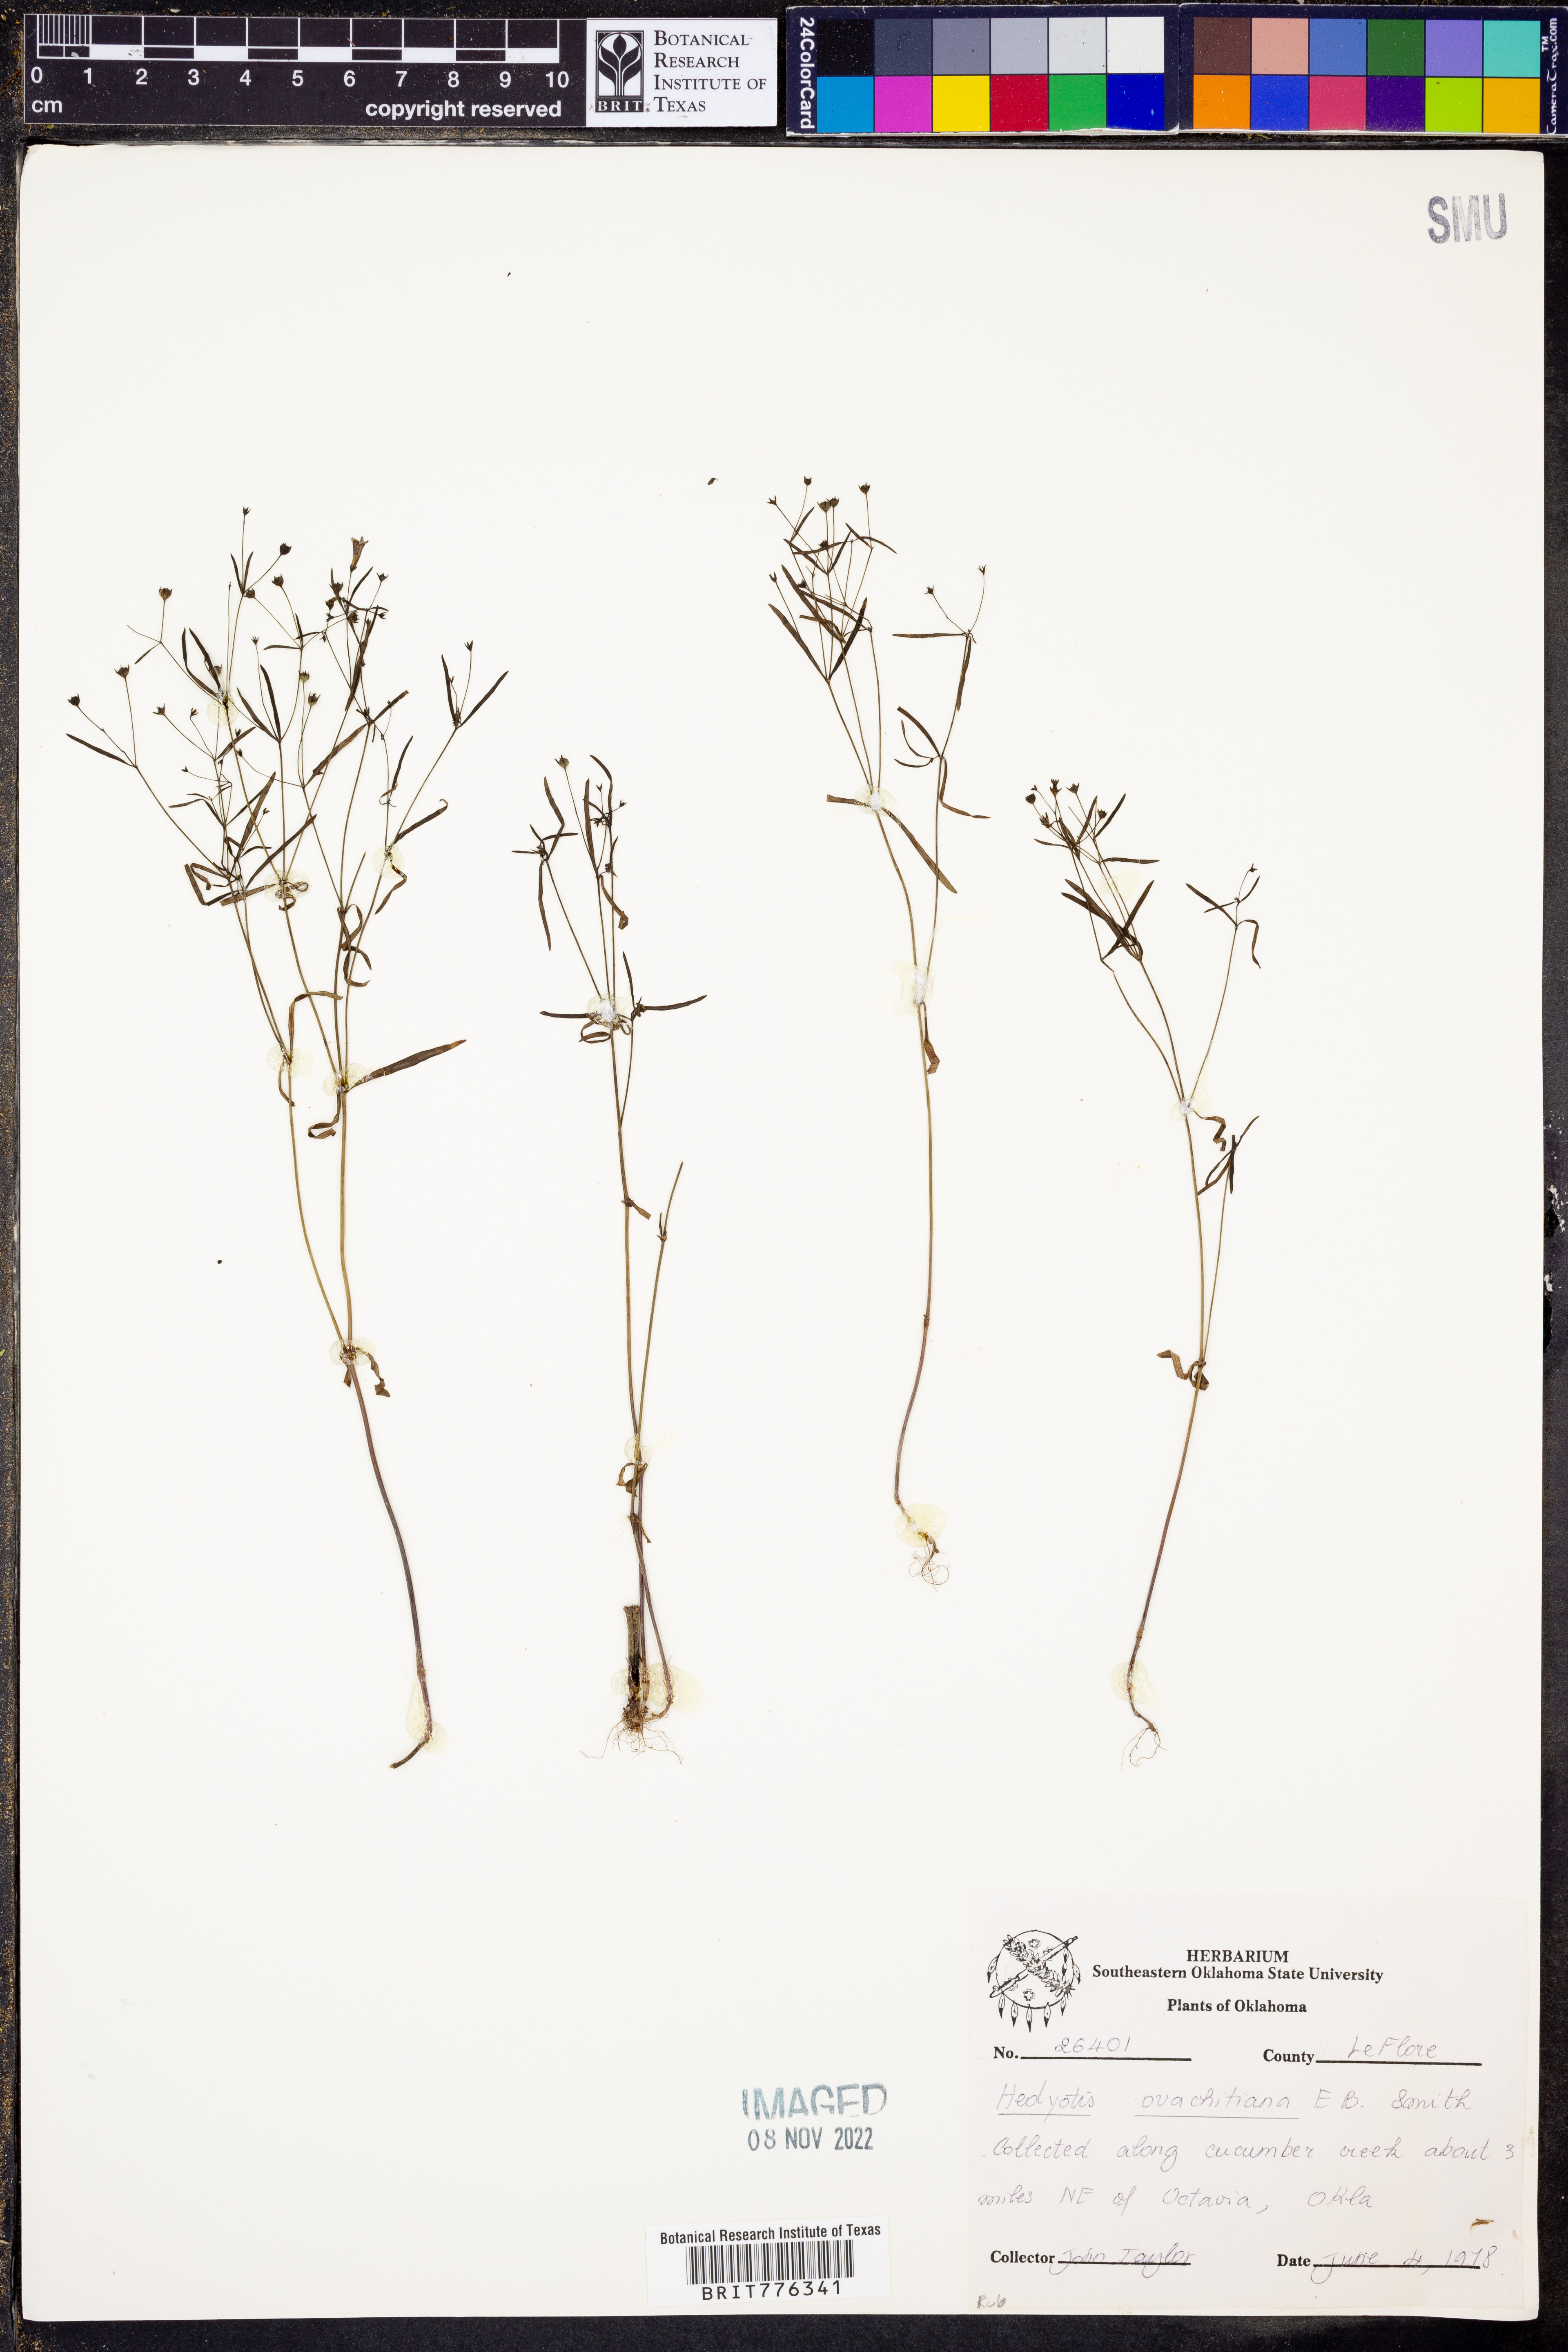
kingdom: Plantae
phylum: Tracheophyta
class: Magnoliopsida
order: Gentianales
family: Rubiaceae
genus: Houstonia
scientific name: Houstonia ouachitana
